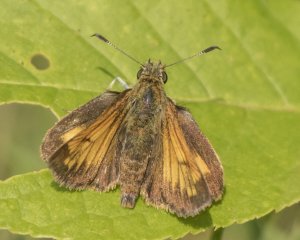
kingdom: Animalia
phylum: Arthropoda
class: Insecta
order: Lepidoptera
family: Hesperiidae
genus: Lon
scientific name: Lon hobomok
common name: Hobomok Skipper
